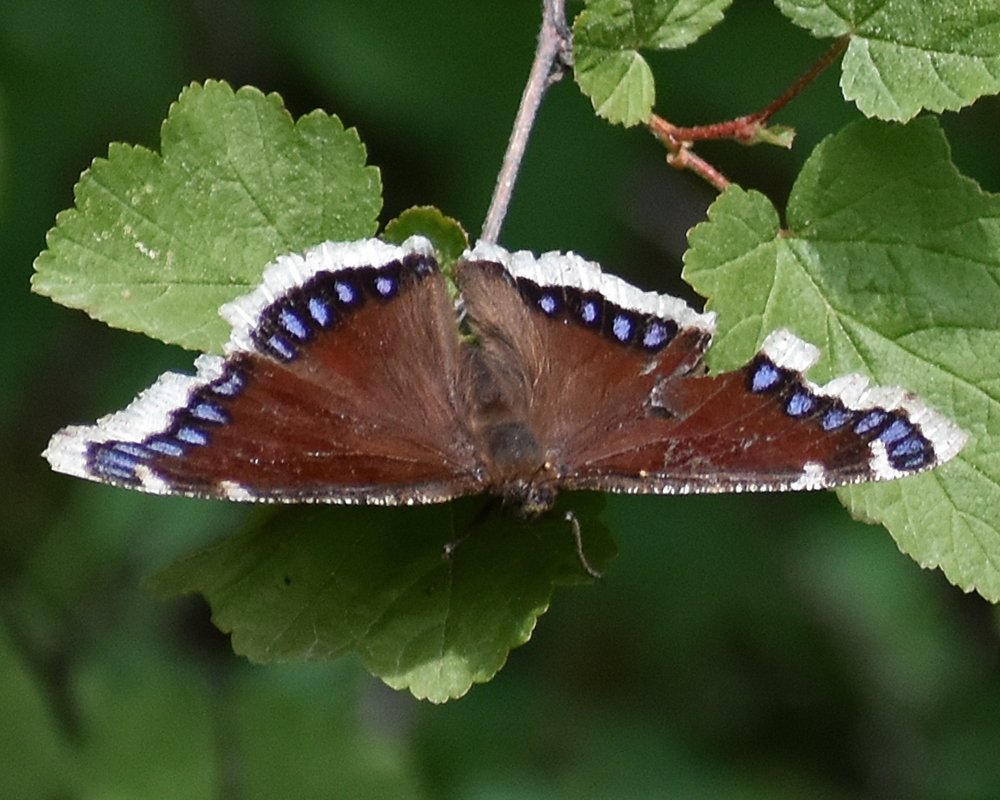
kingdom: Animalia
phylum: Arthropoda
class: Insecta
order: Lepidoptera
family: Nymphalidae
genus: Nymphalis
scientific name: Nymphalis antiopa
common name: Mourning Cloak
